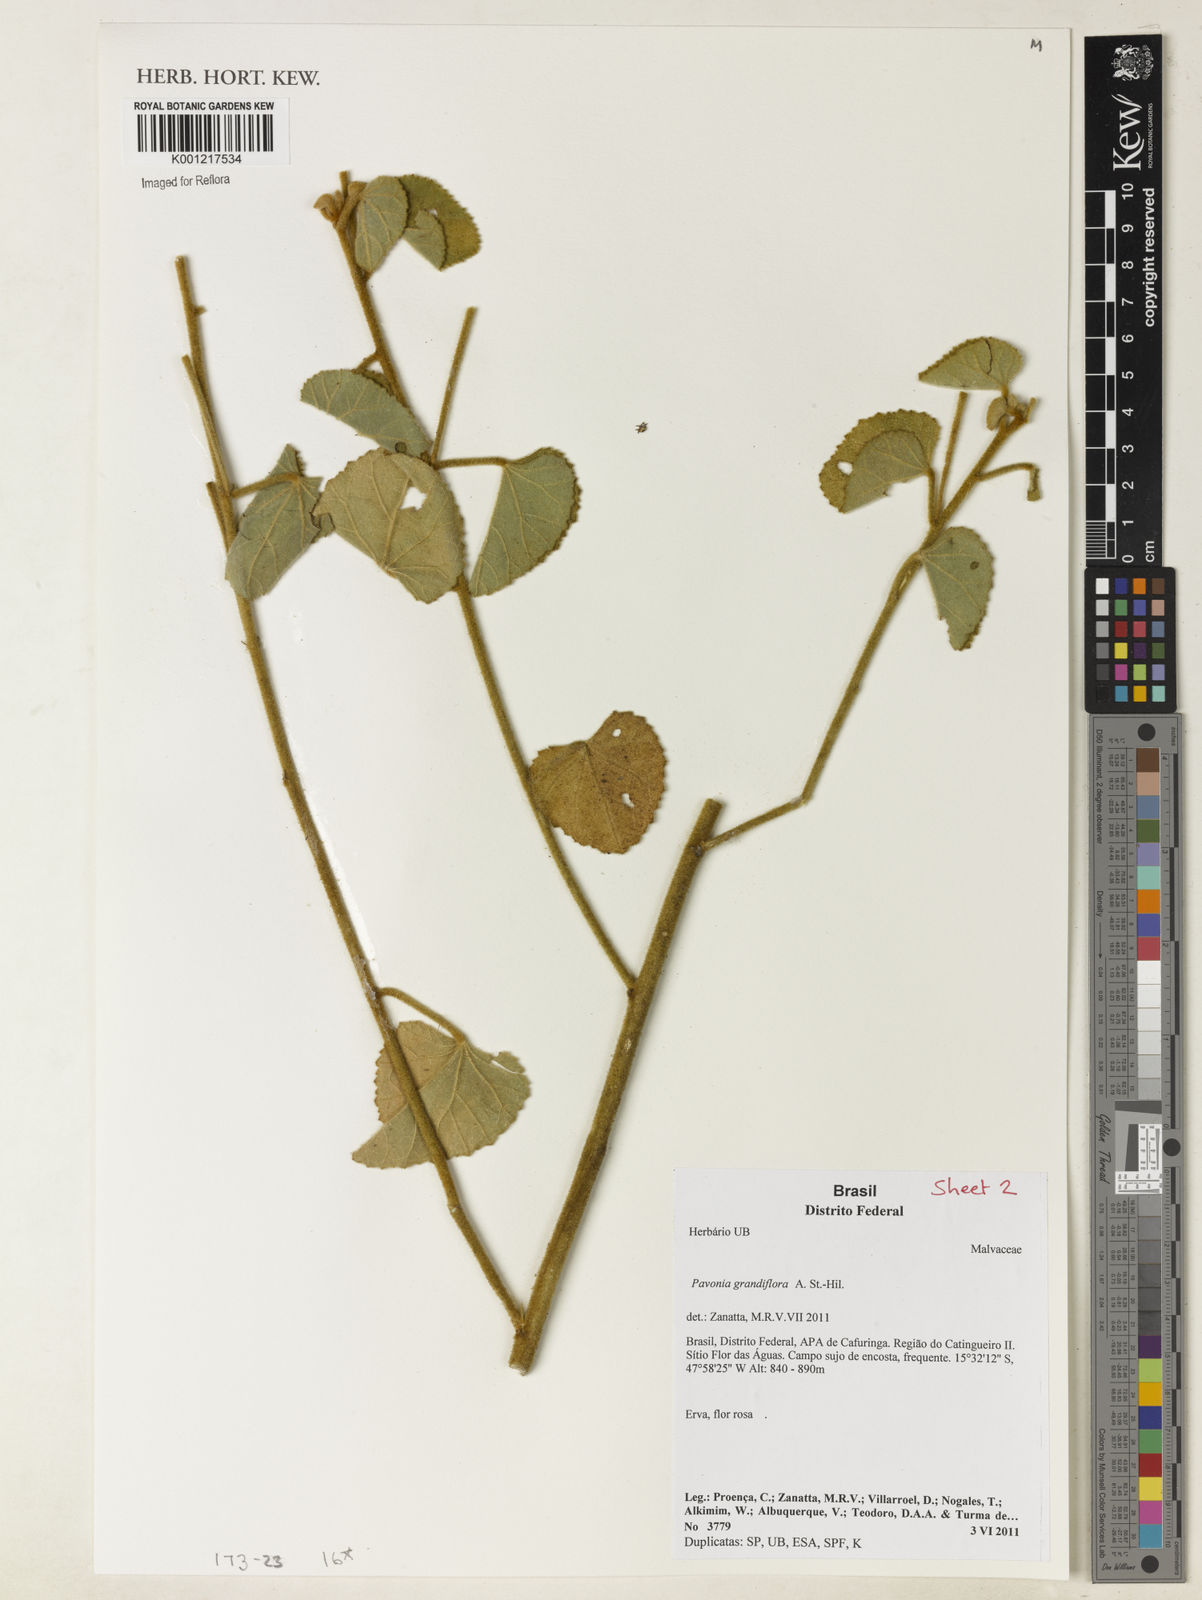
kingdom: Plantae
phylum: Tracheophyta
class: Magnoliopsida
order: Malvales
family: Malvaceae
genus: Pavonia
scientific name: Pavonia grandiflora
